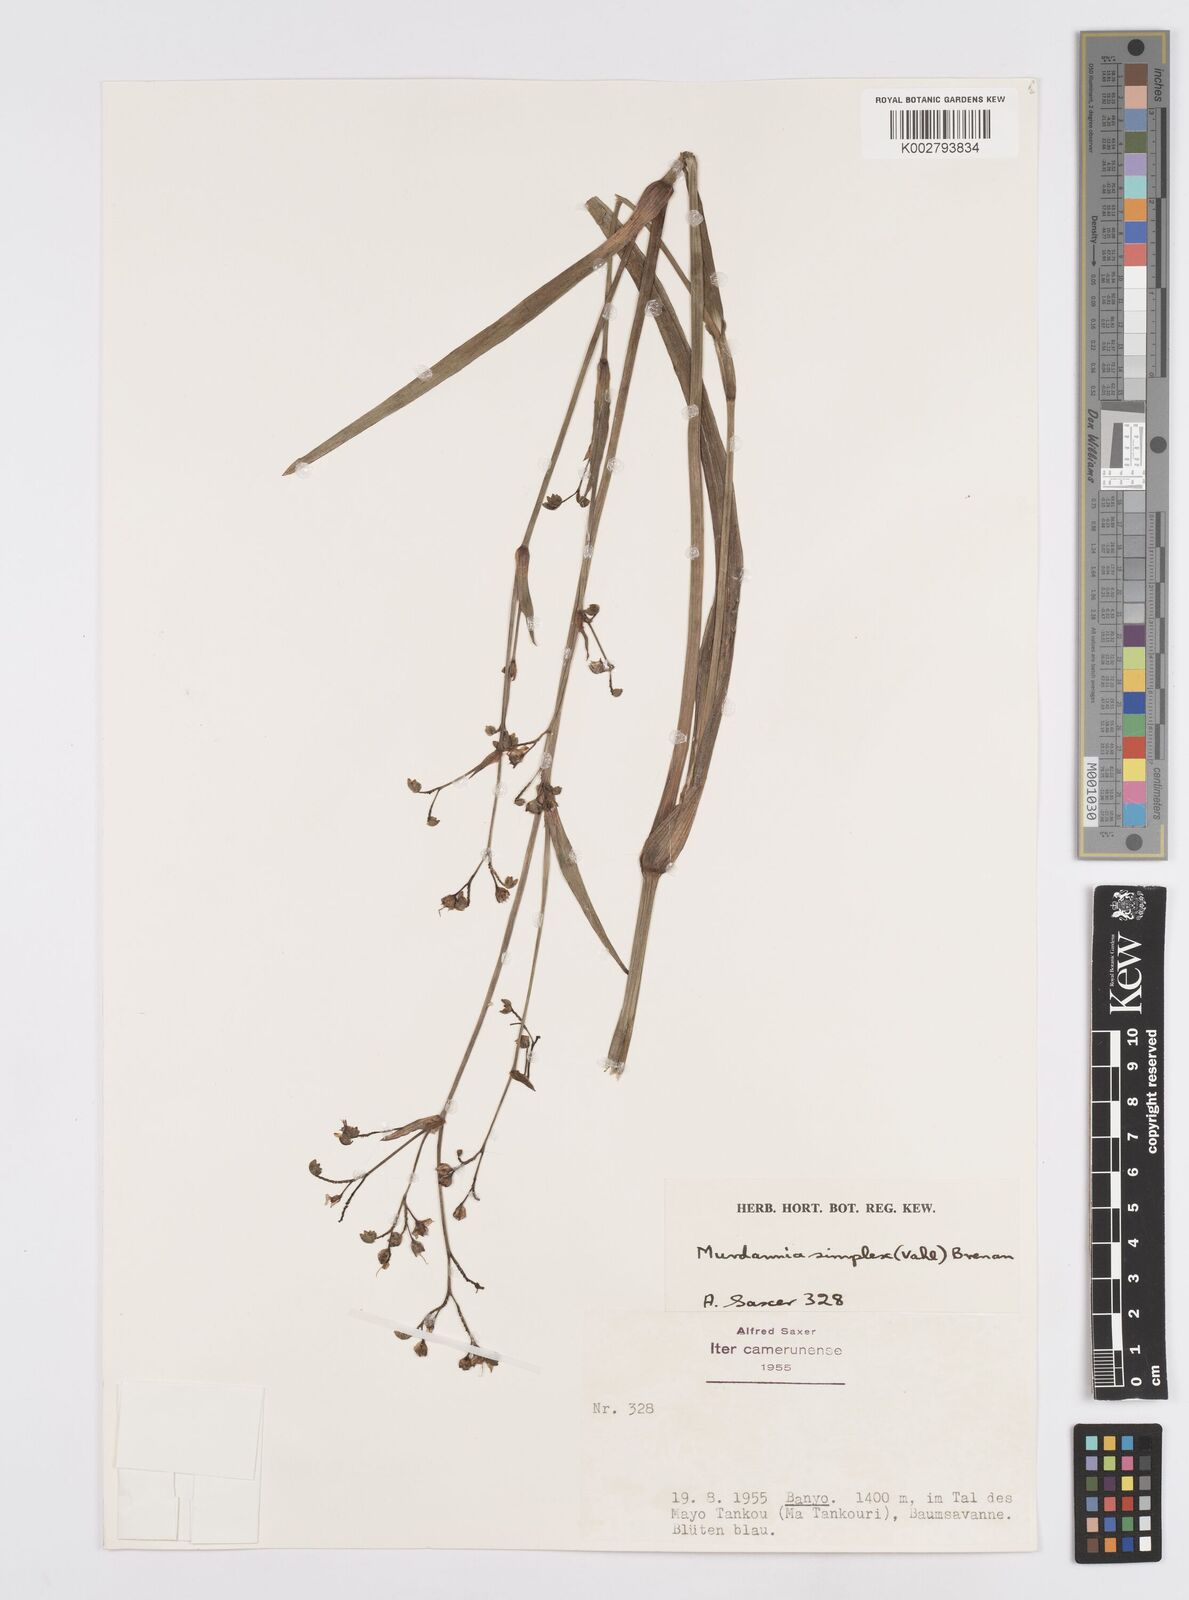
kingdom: Plantae
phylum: Tracheophyta
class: Liliopsida
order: Commelinales
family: Commelinaceae
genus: Murdannia
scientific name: Murdannia simplex
